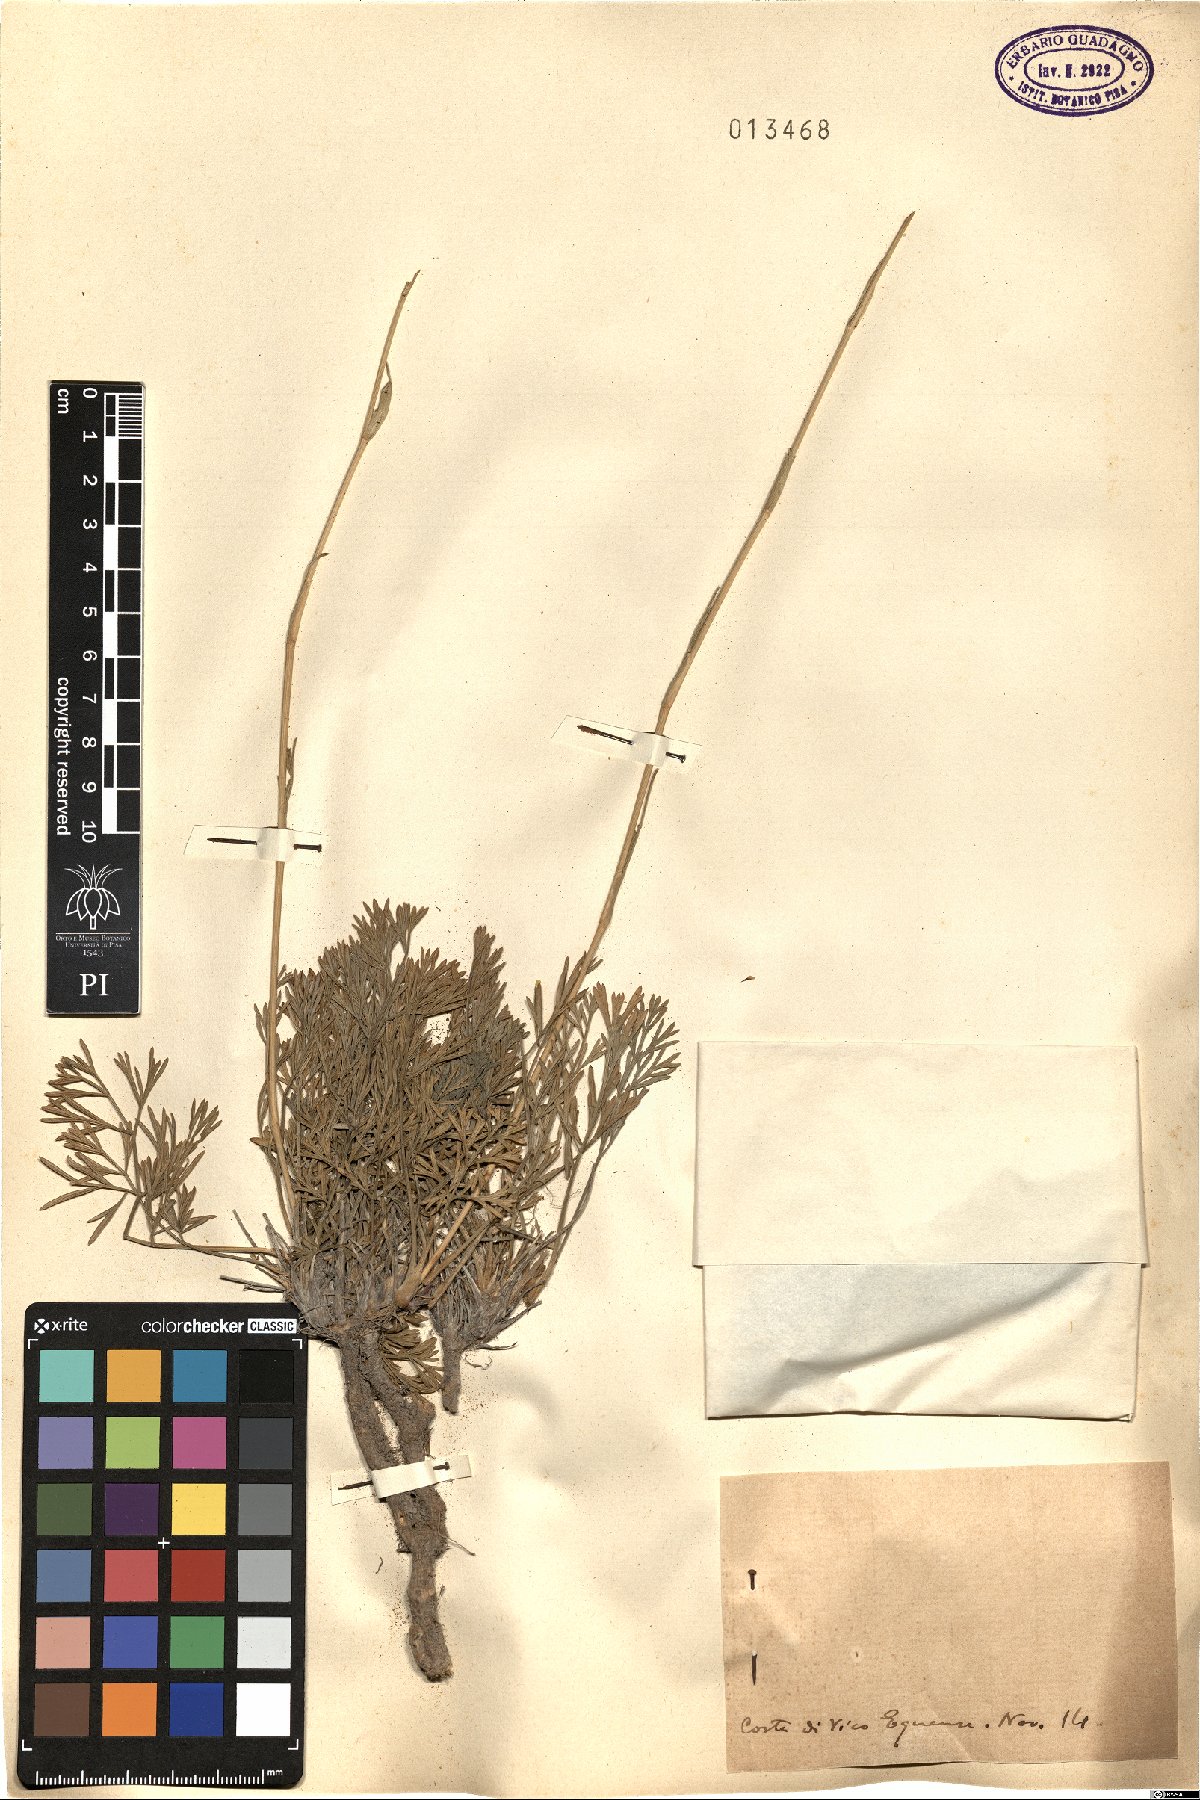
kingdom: Plantae
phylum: Tracheophyta
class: Magnoliopsida
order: Apiales
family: Apiaceae
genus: Seseli
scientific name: Seseli
